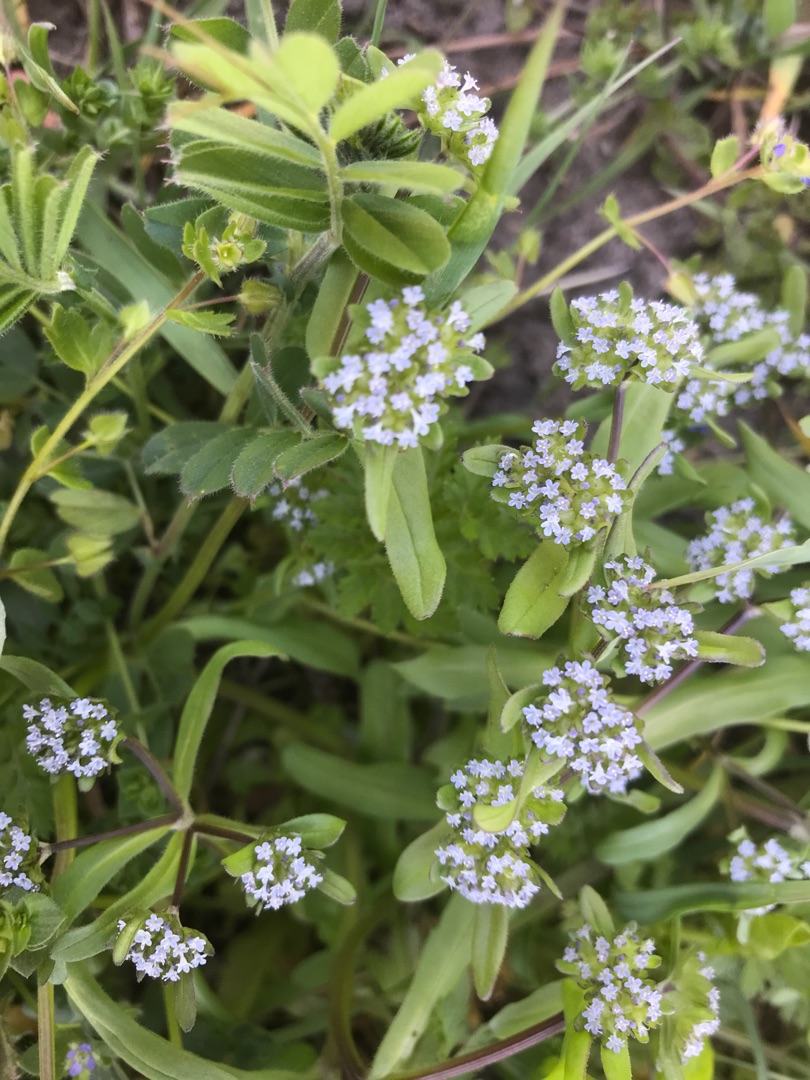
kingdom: Plantae
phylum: Tracheophyta
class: Magnoliopsida
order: Dipsacales
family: Caprifoliaceae
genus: Valerianella
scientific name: Valerianella locusta
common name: Tandfri vårsalat
